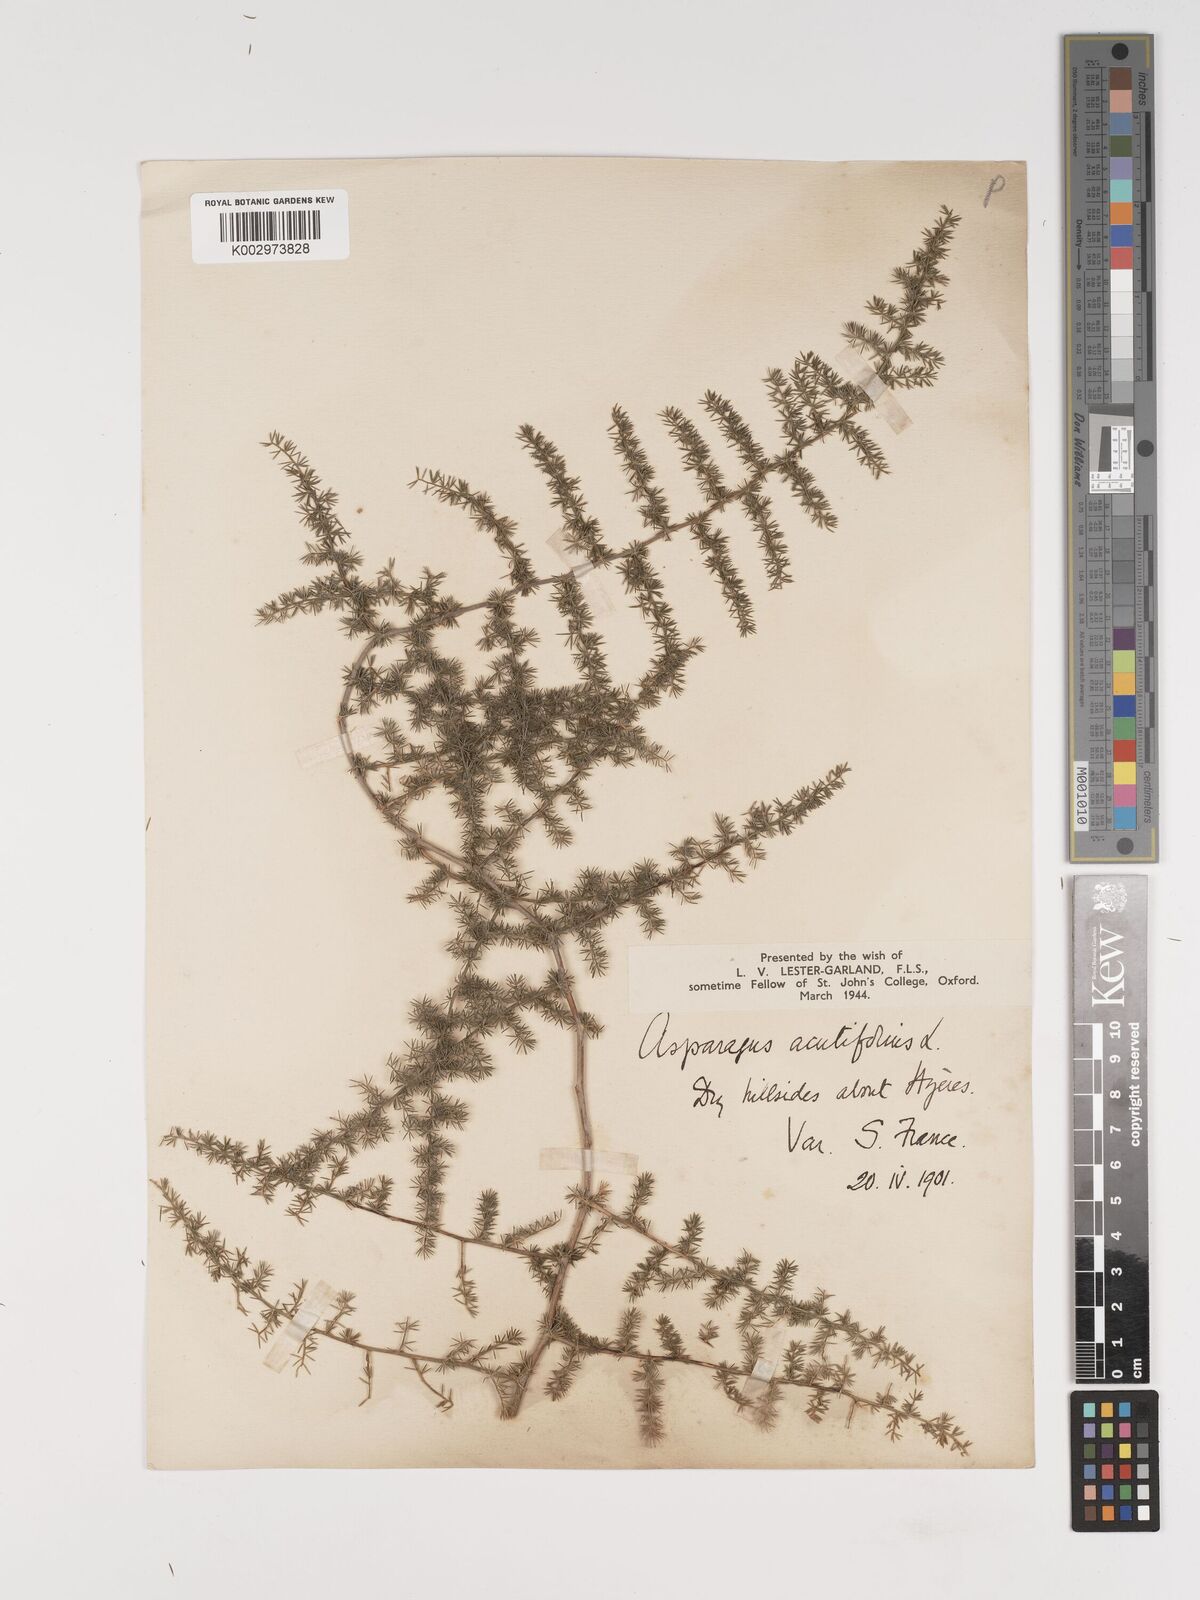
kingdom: Plantae
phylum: Tracheophyta
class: Liliopsida
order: Asparagales
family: Asparagaceae
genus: Asparagus
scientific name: Asparagus aethiopicus
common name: Sprenger's asparagus fern
